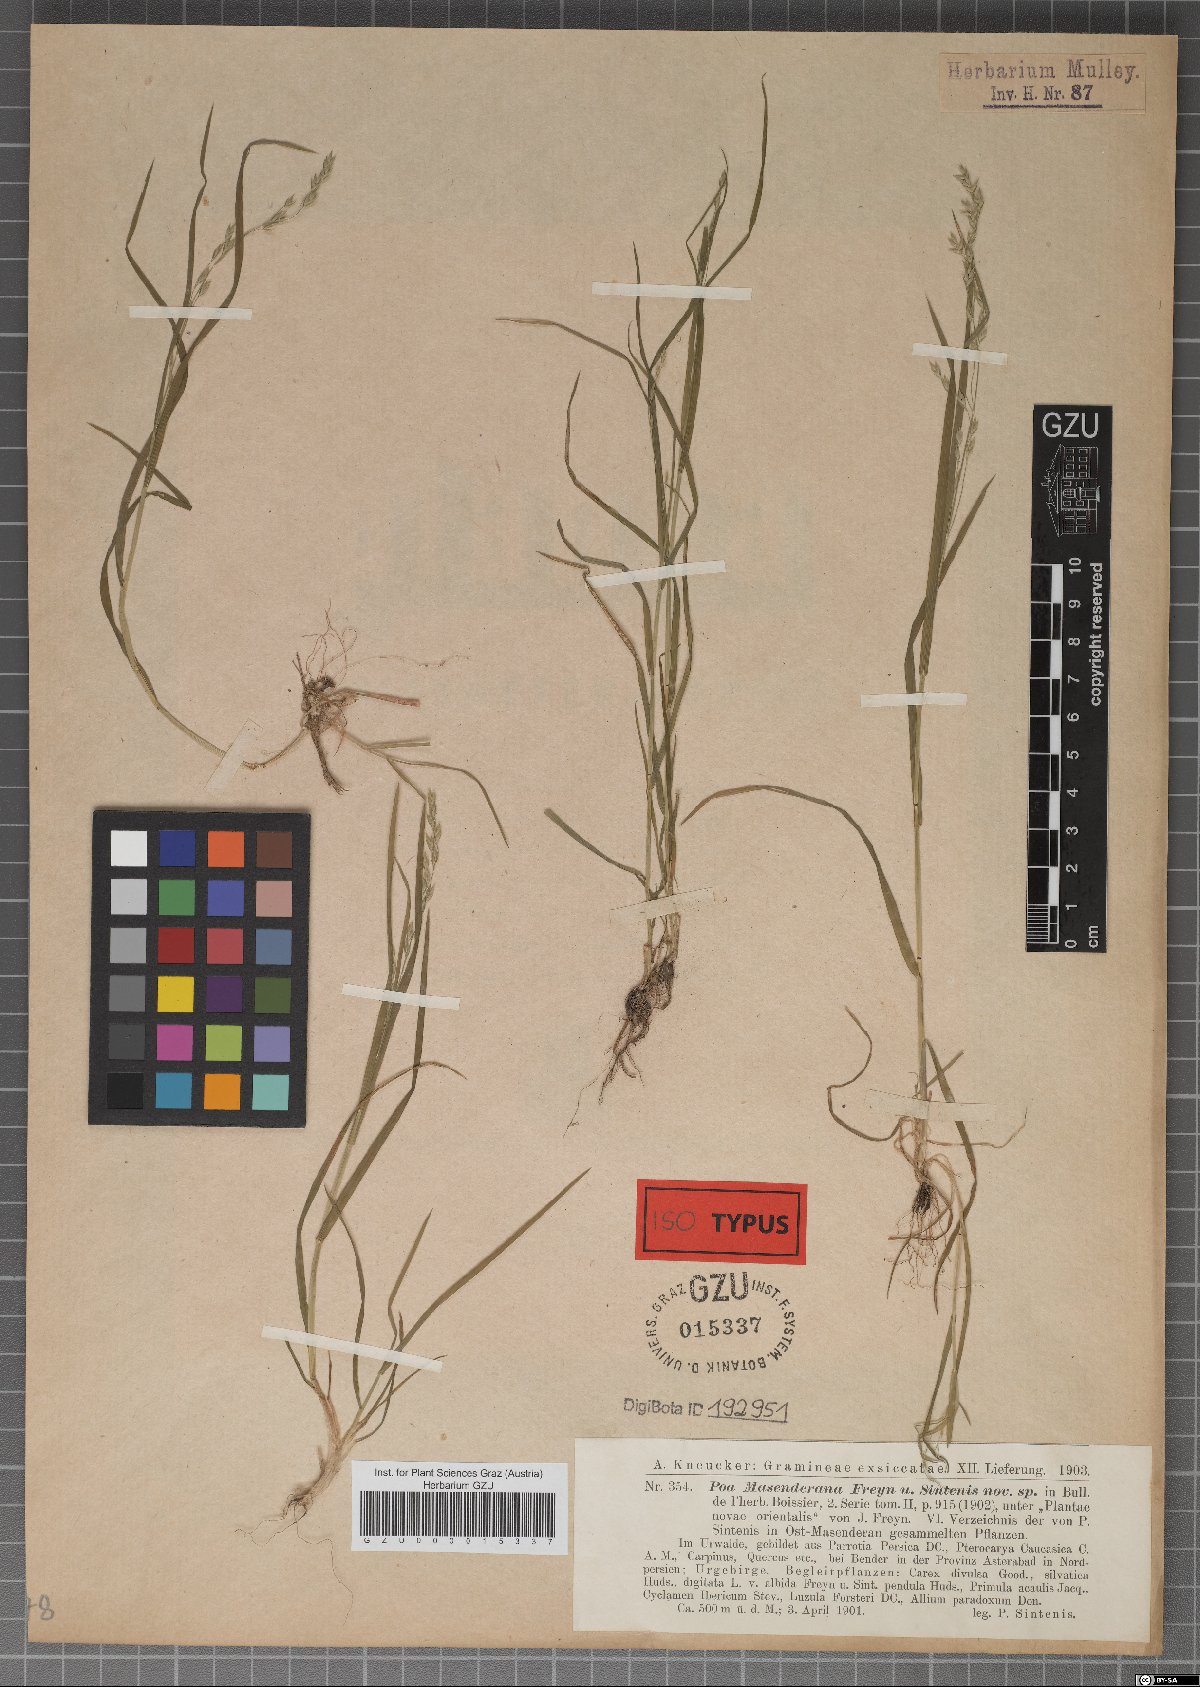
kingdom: Plantae
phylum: Tracheophyta
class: Liliopsida
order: Poales
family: Poaceae
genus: Poa
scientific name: Poa masenderana
